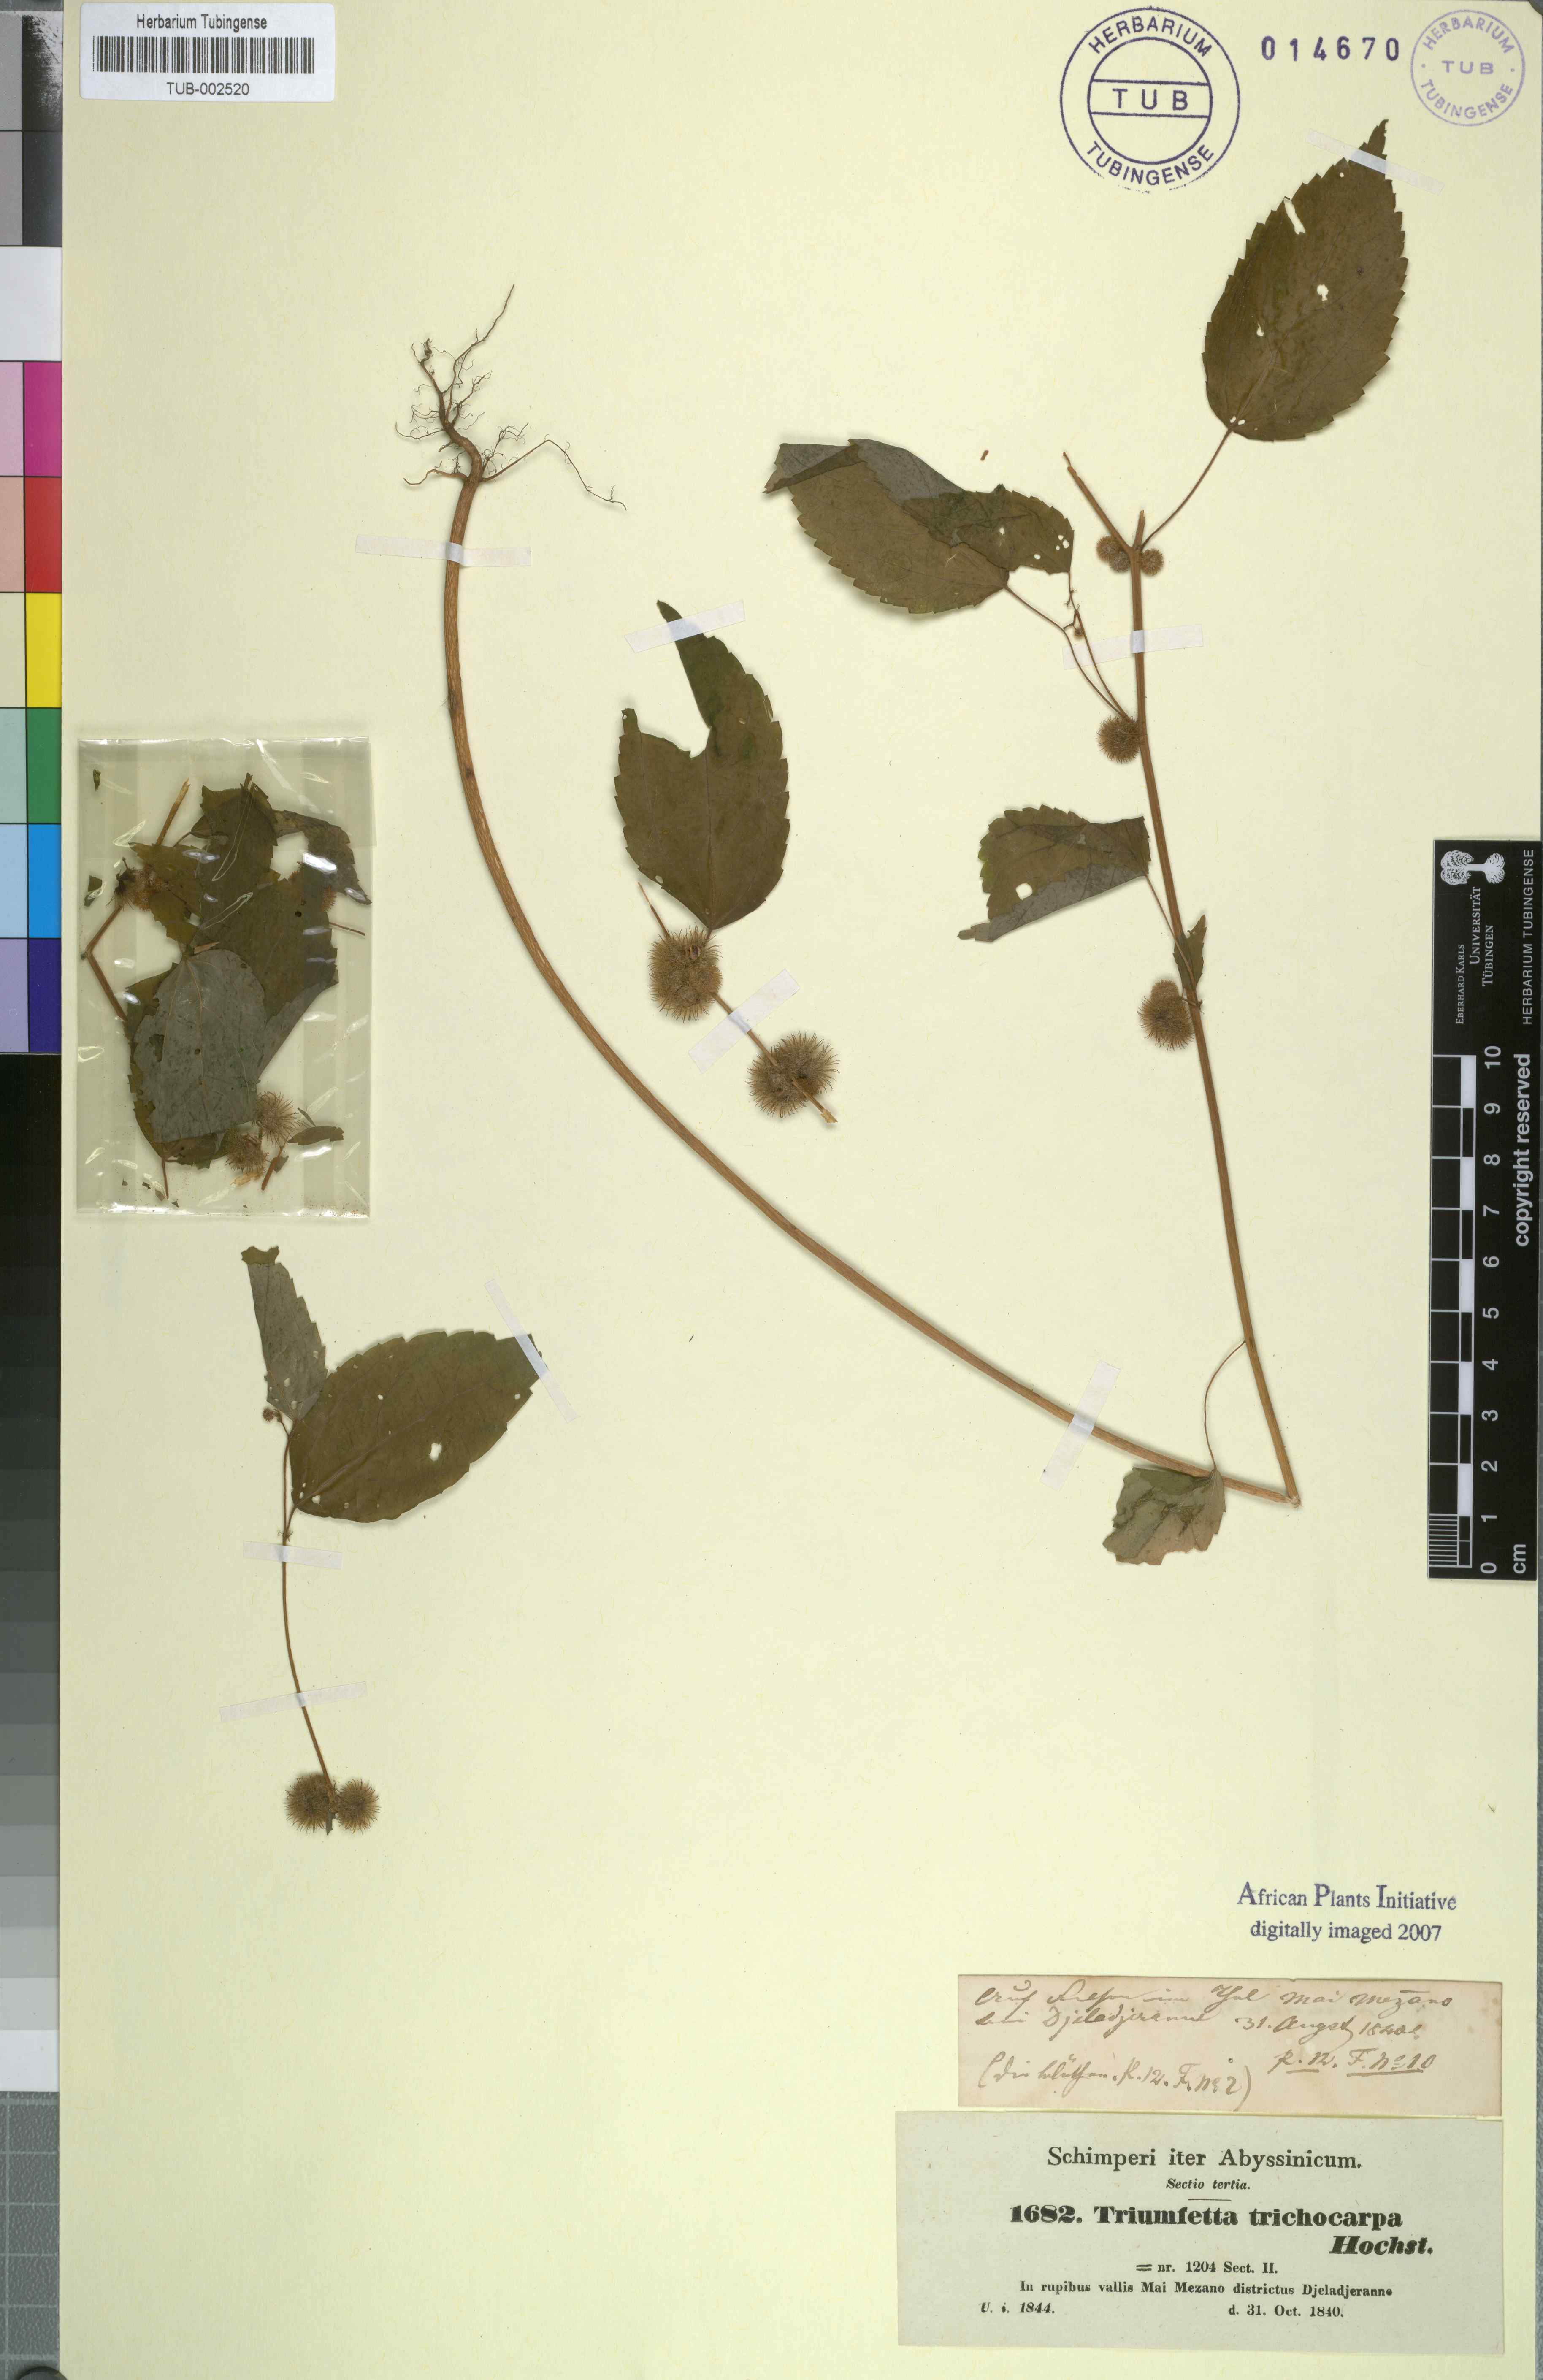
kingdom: Plantae
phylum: Tracheophyta
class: Magnoliopsida
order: Malvales
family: Malvaceae
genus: Triumfetta
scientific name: Triumfetta trichocarpa
